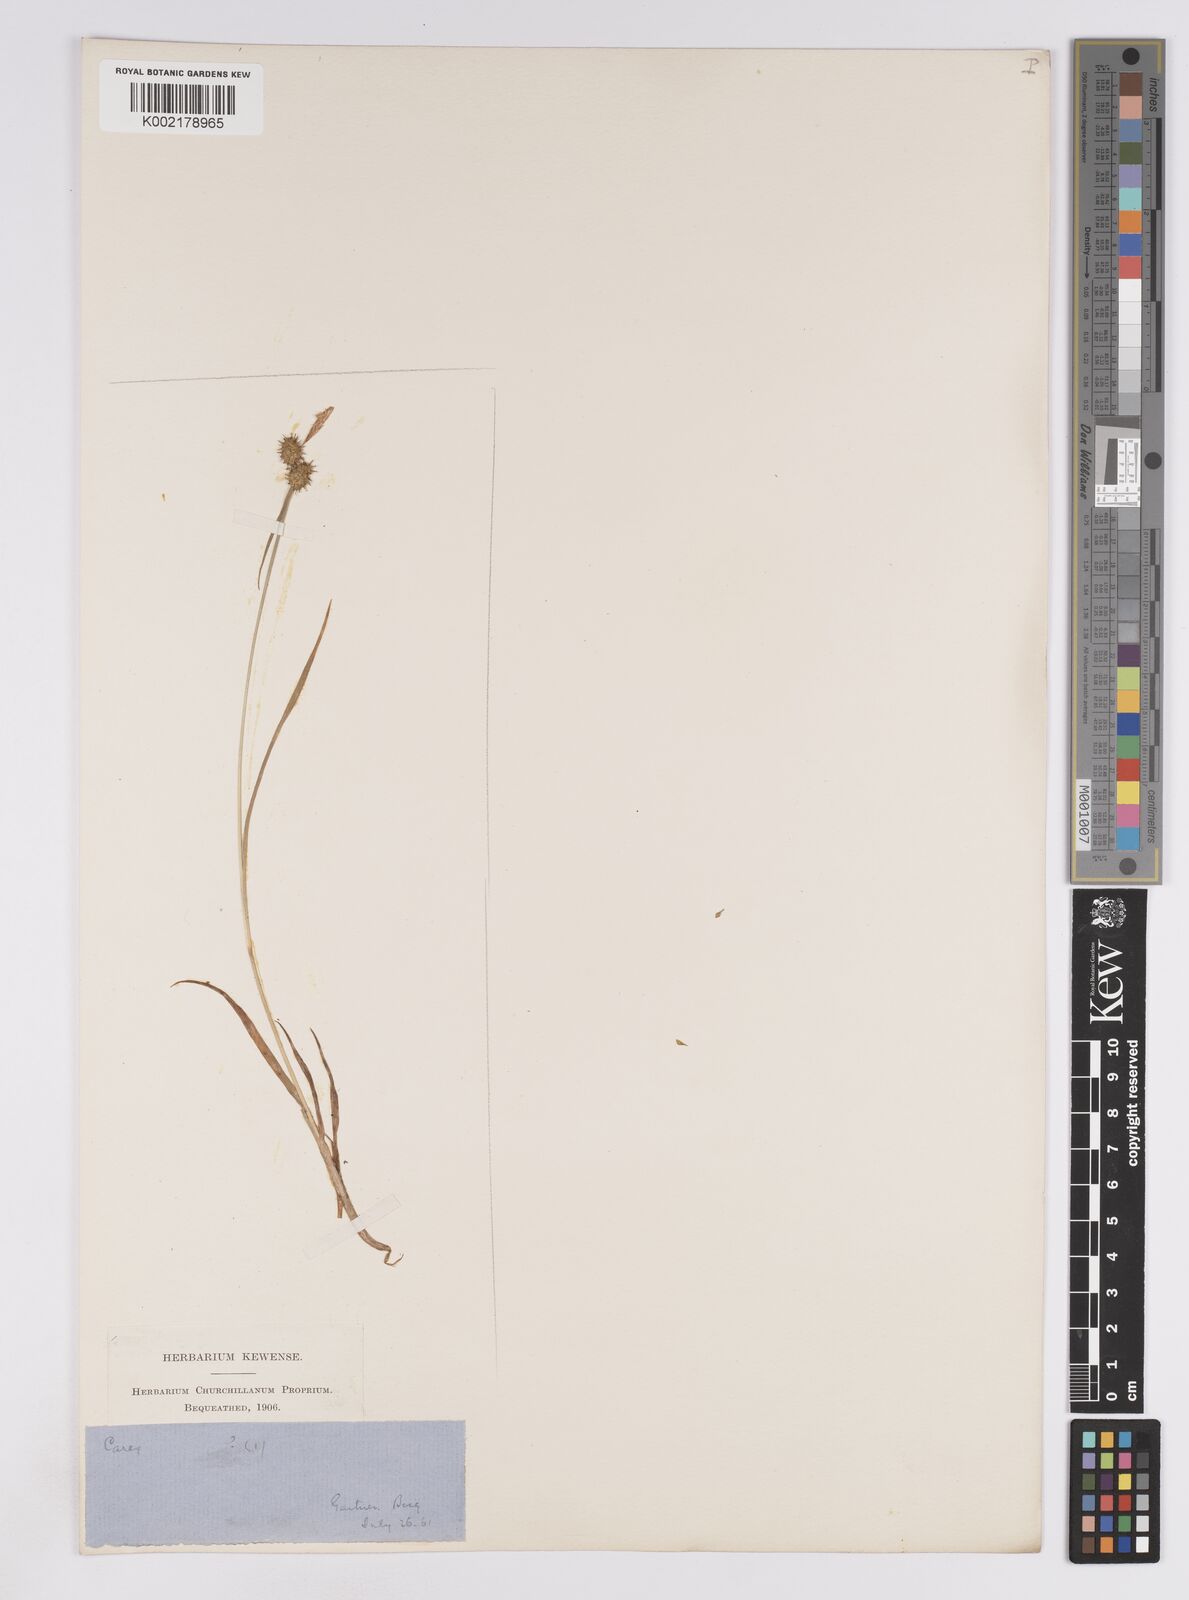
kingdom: Plantae
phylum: Tracheophyta
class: Liliopsida
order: Poales
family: Cyperaceae
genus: Carex
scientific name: Carex lepidocarpa
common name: Long-stalked yellow-sedge
